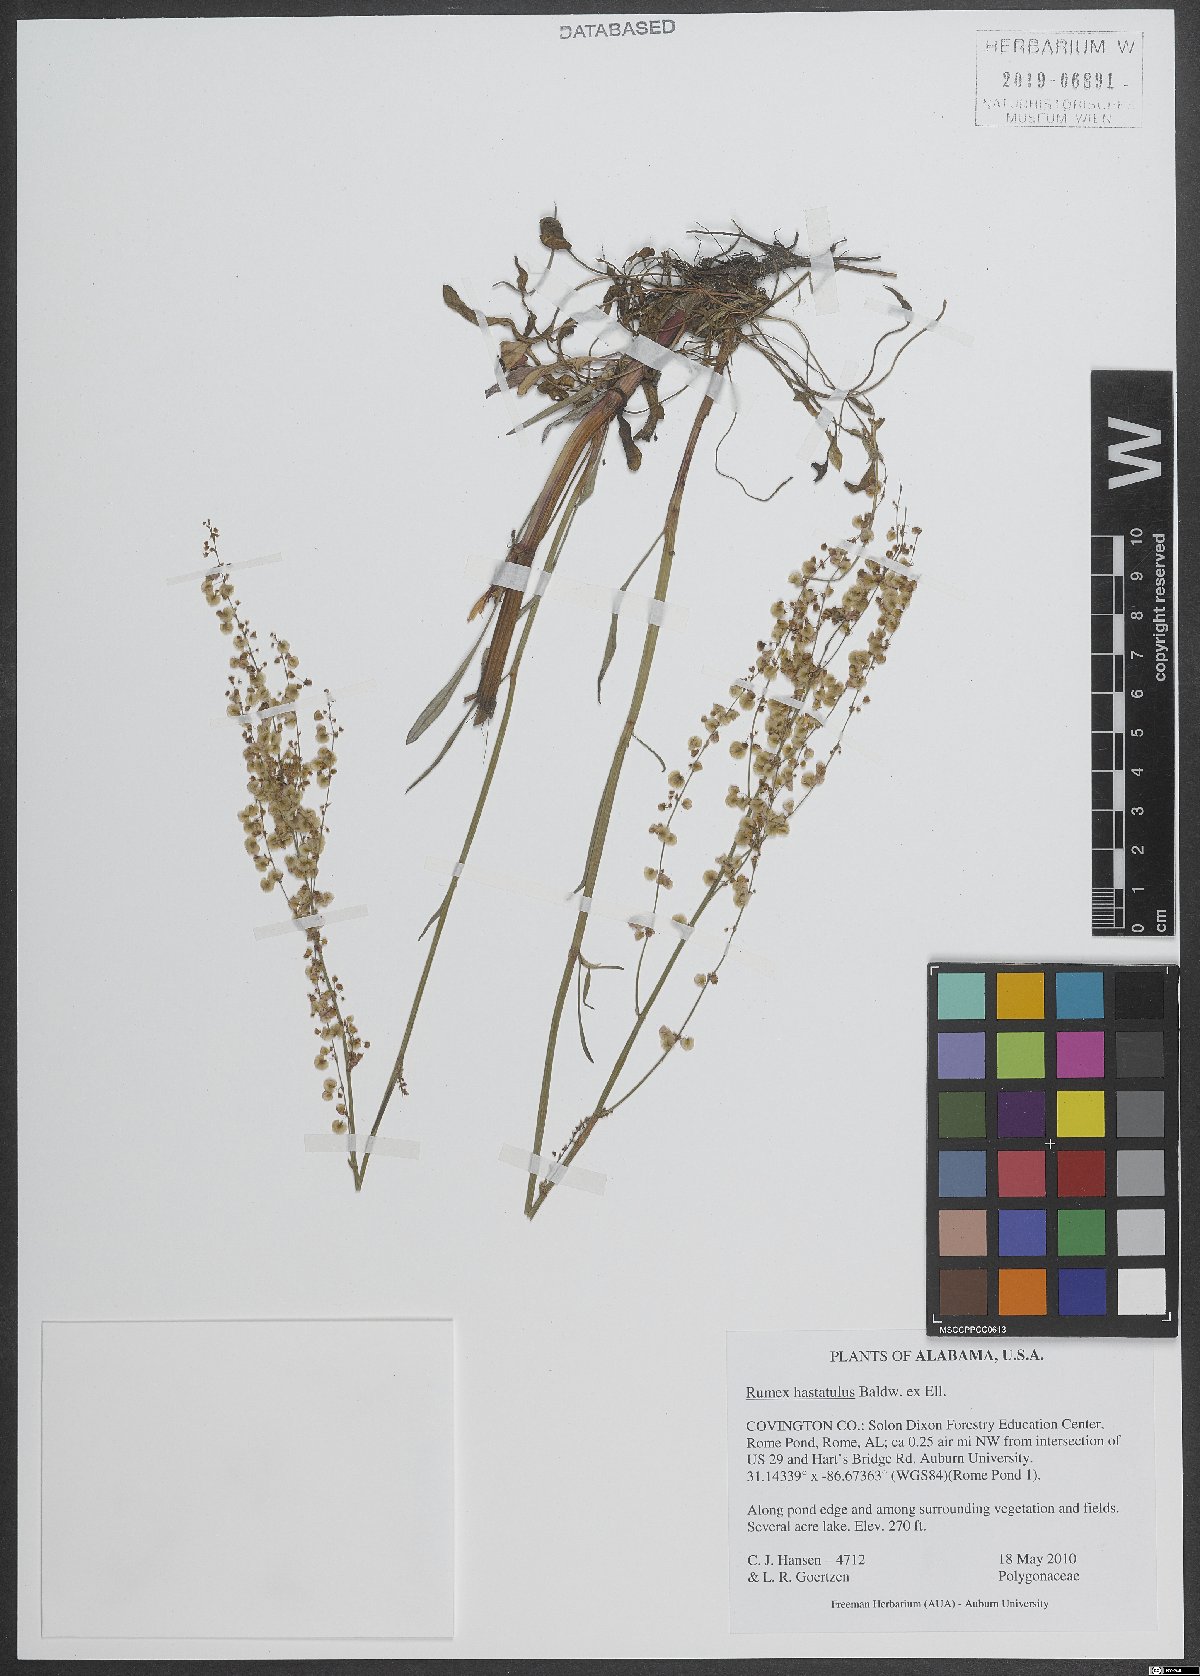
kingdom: Plantae
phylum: Tracheophyta
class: Magnoliopsida
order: Caryophyllales
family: Polygonaceae
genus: Rumex
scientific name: Rumex hastatus
